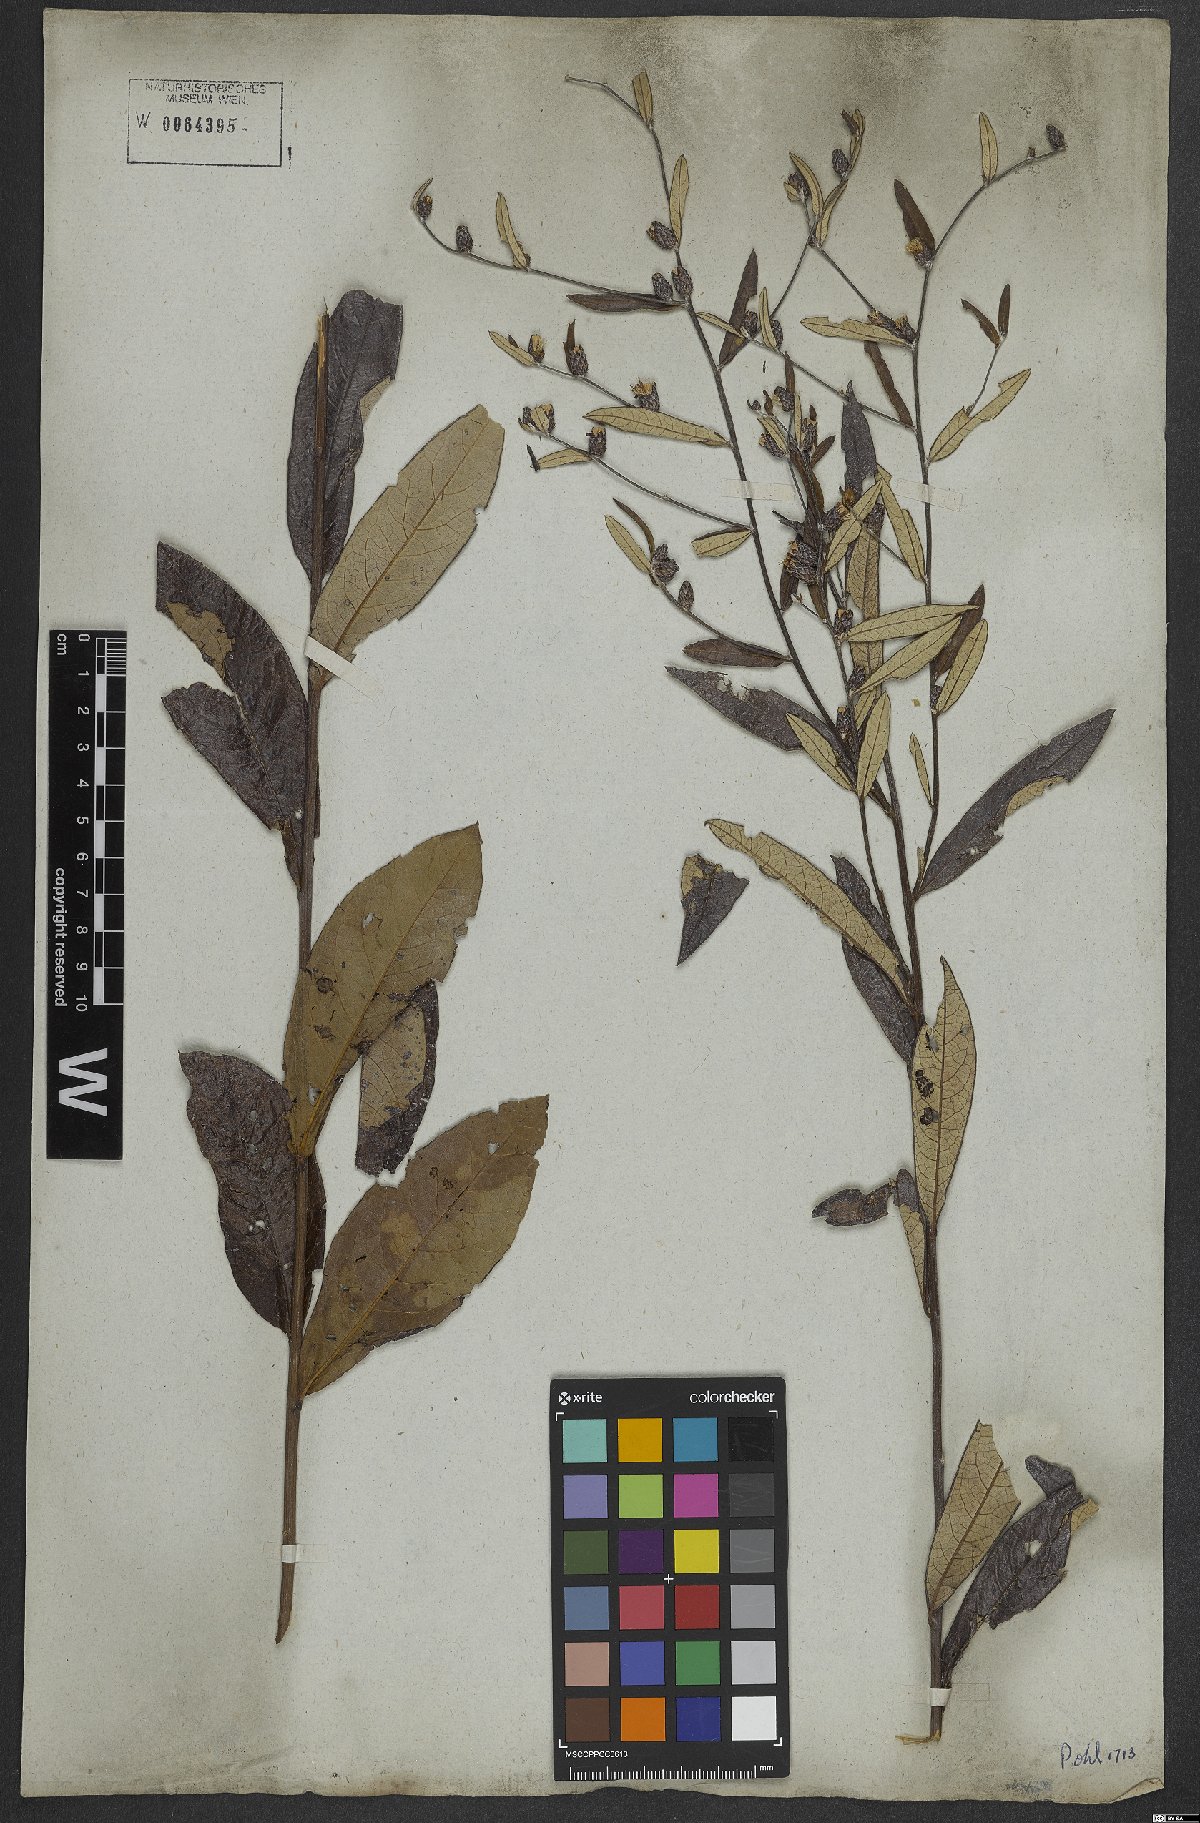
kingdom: Plantae
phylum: Tracheophyta
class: Magnoliopsida
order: Asterales
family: Asteraceae
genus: Lessingianthus
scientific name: Lessingianthus elegans
